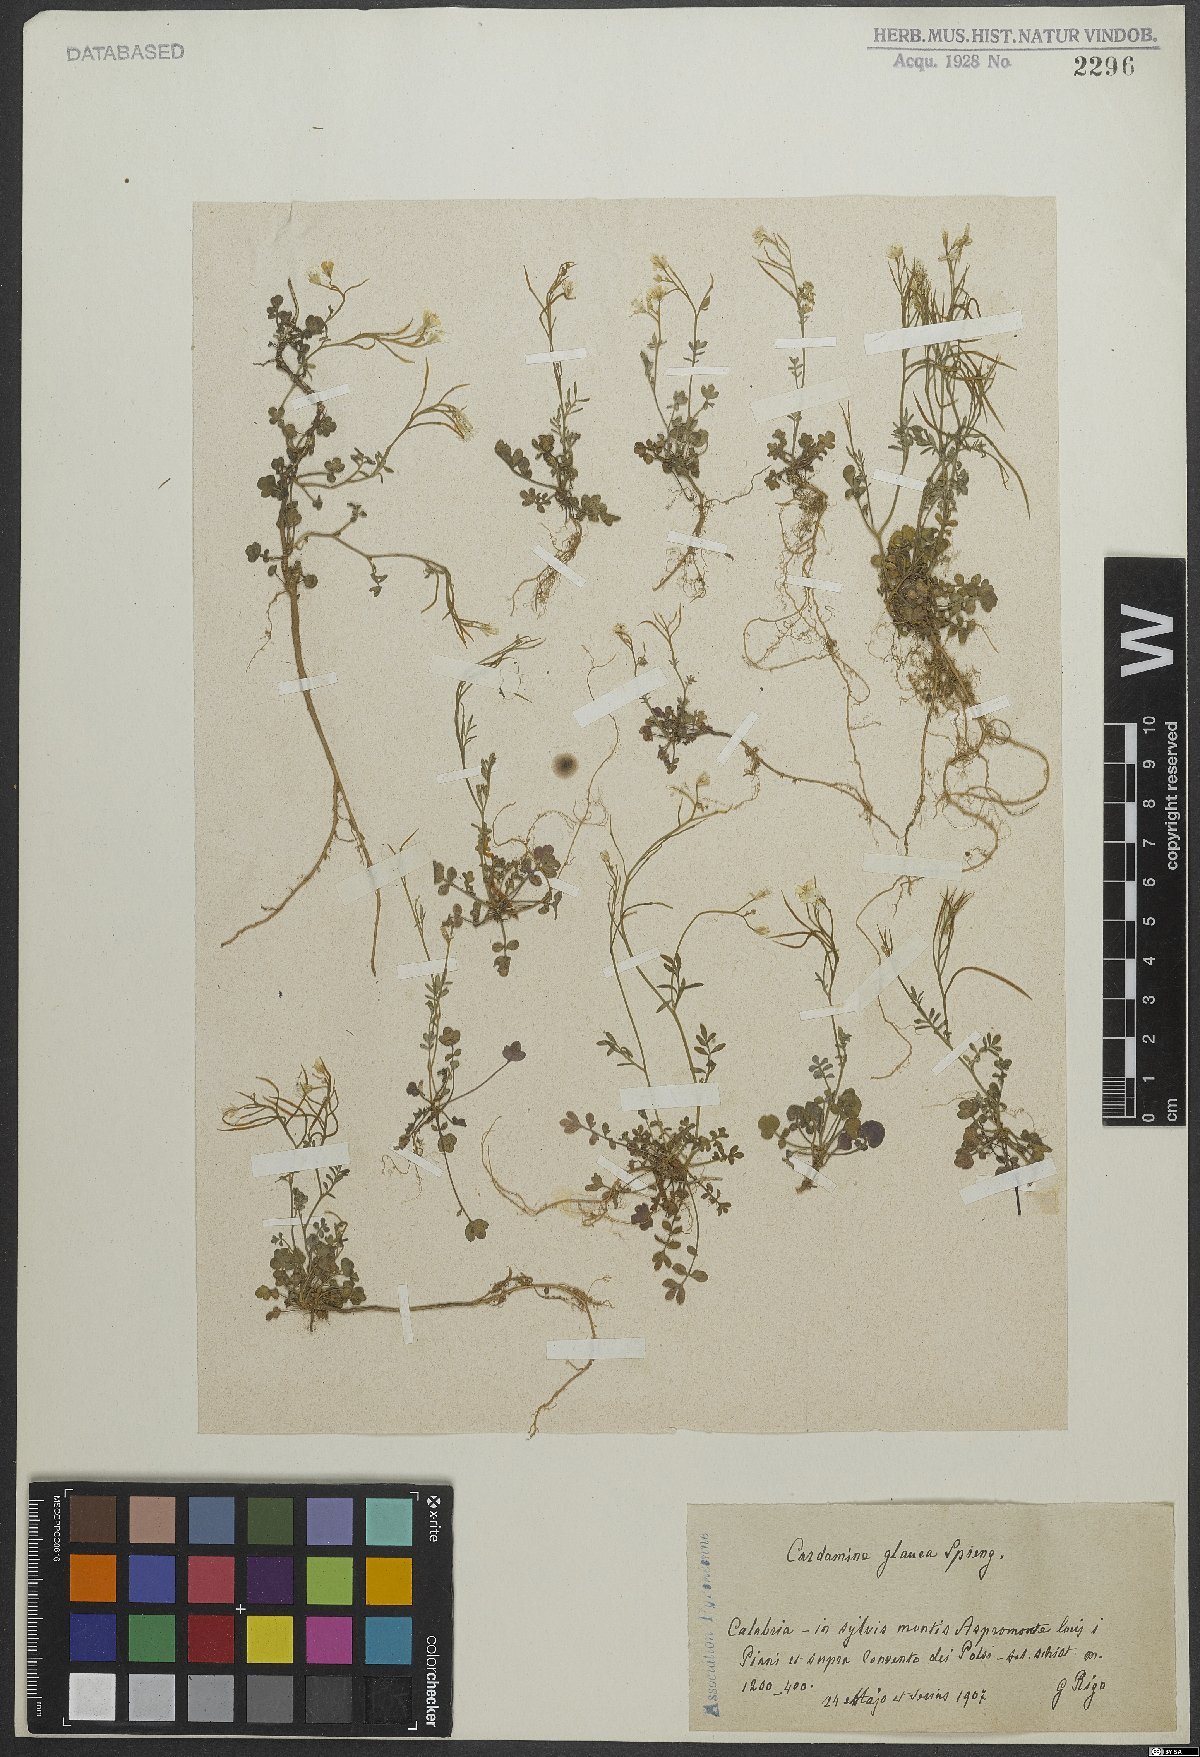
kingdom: Plantae
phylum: Tracheophyta
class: Magnoliopsida
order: Brassicales
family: Brassicaceae
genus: Cardamine
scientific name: Cardamine glauca
